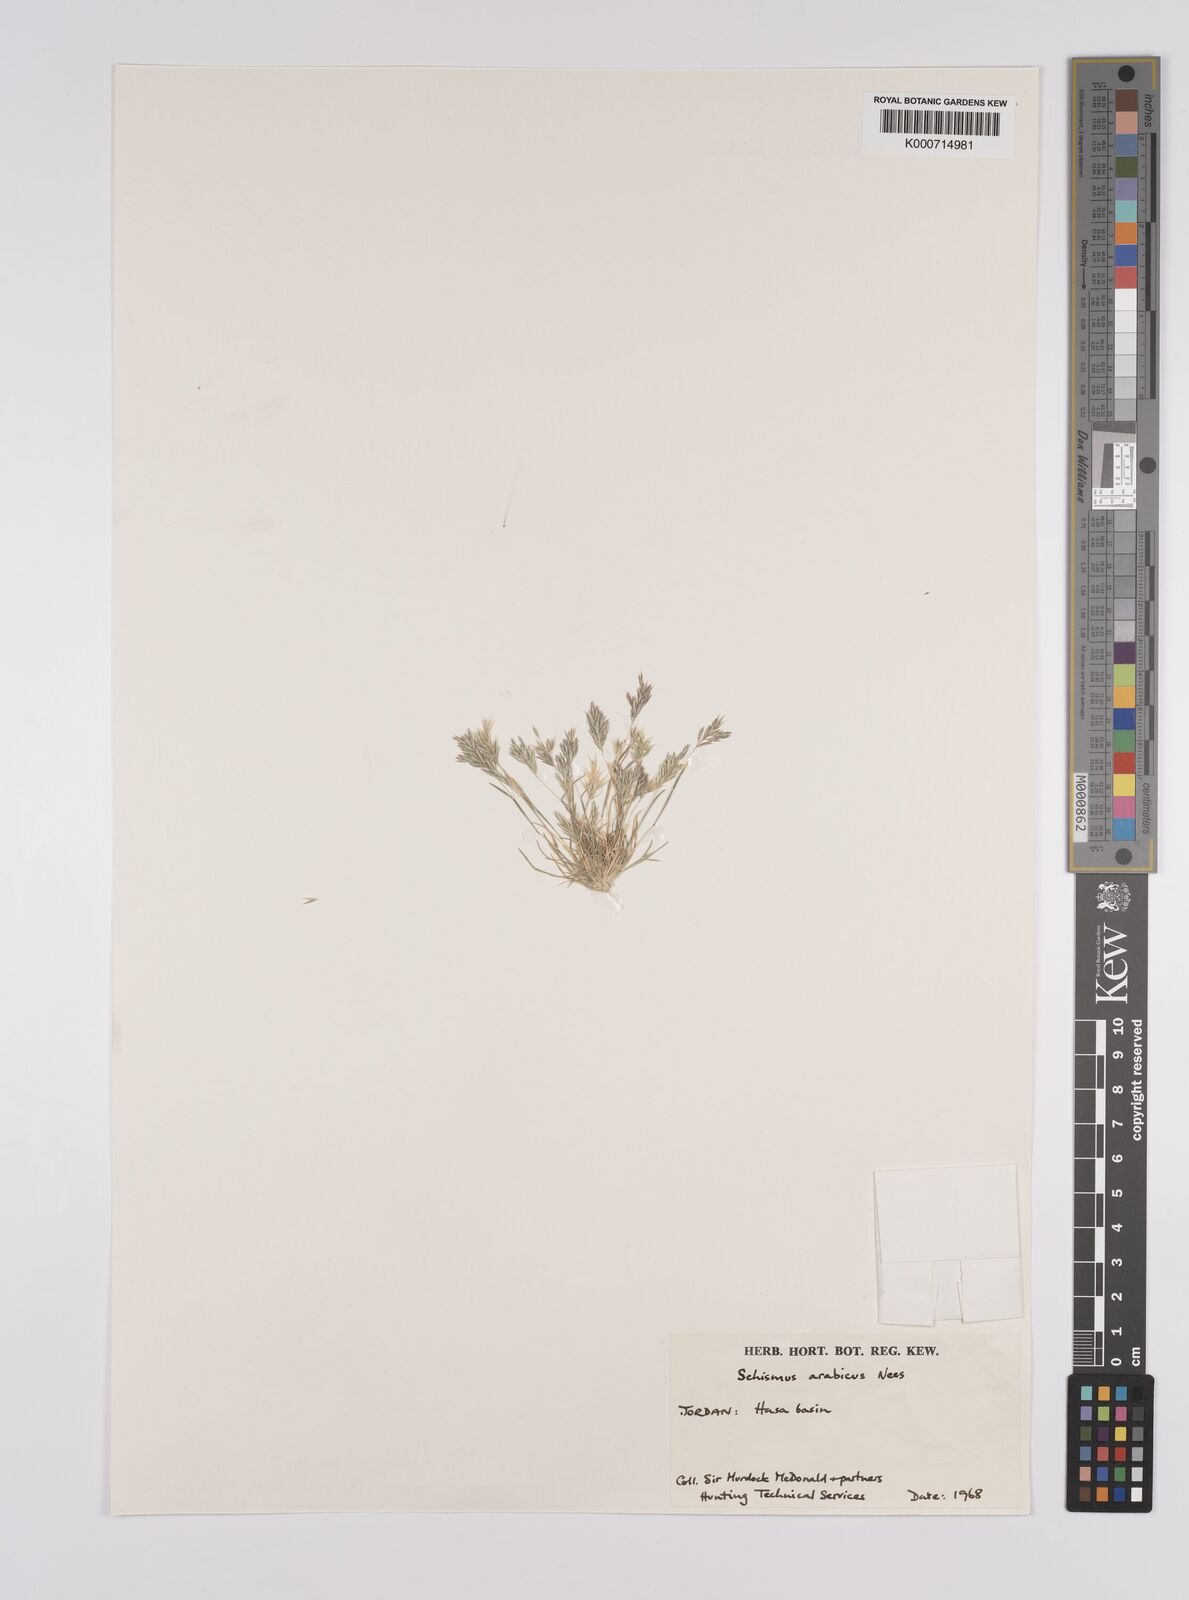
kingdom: Plantae
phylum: Tracheophyta
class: Liliopsida
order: Poales
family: Poaceae
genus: Schismus
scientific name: Schismus arabicus
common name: Arabian schismus
